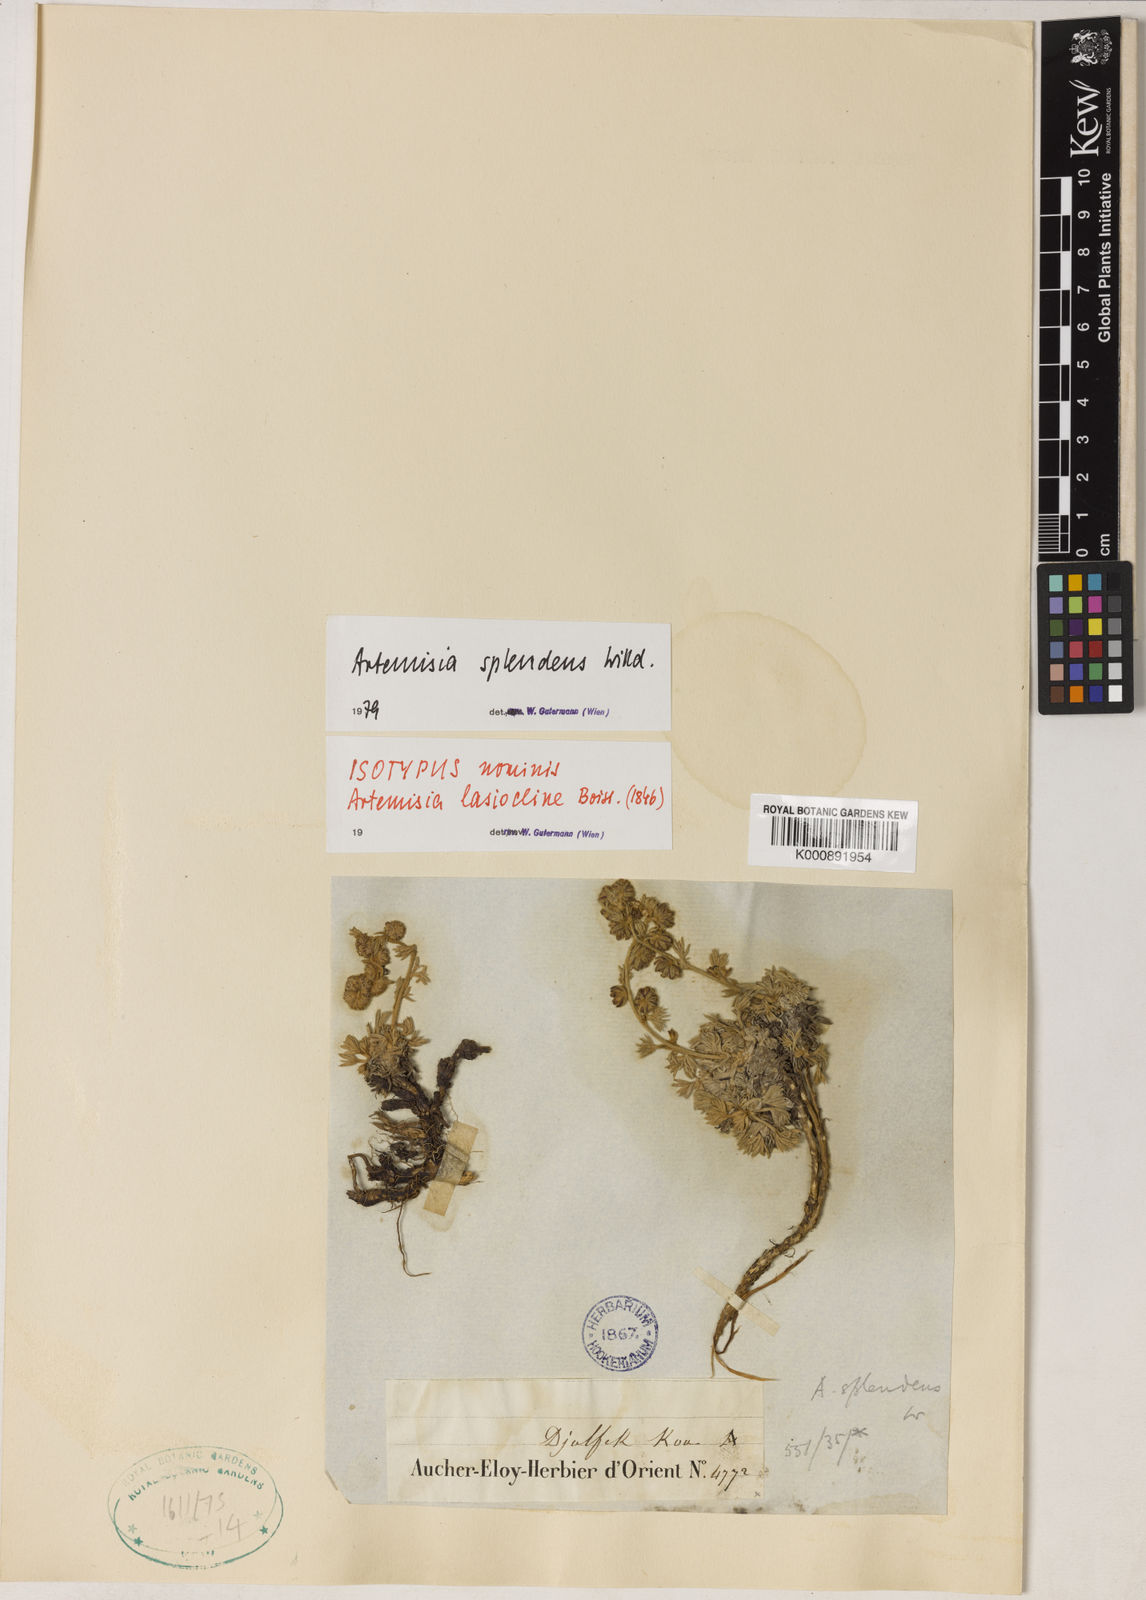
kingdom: Plantae
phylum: Tracheophyta
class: Magnoliopsida
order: Asterales
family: Asteraceae
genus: Artemisia
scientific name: Artemisia splendens
